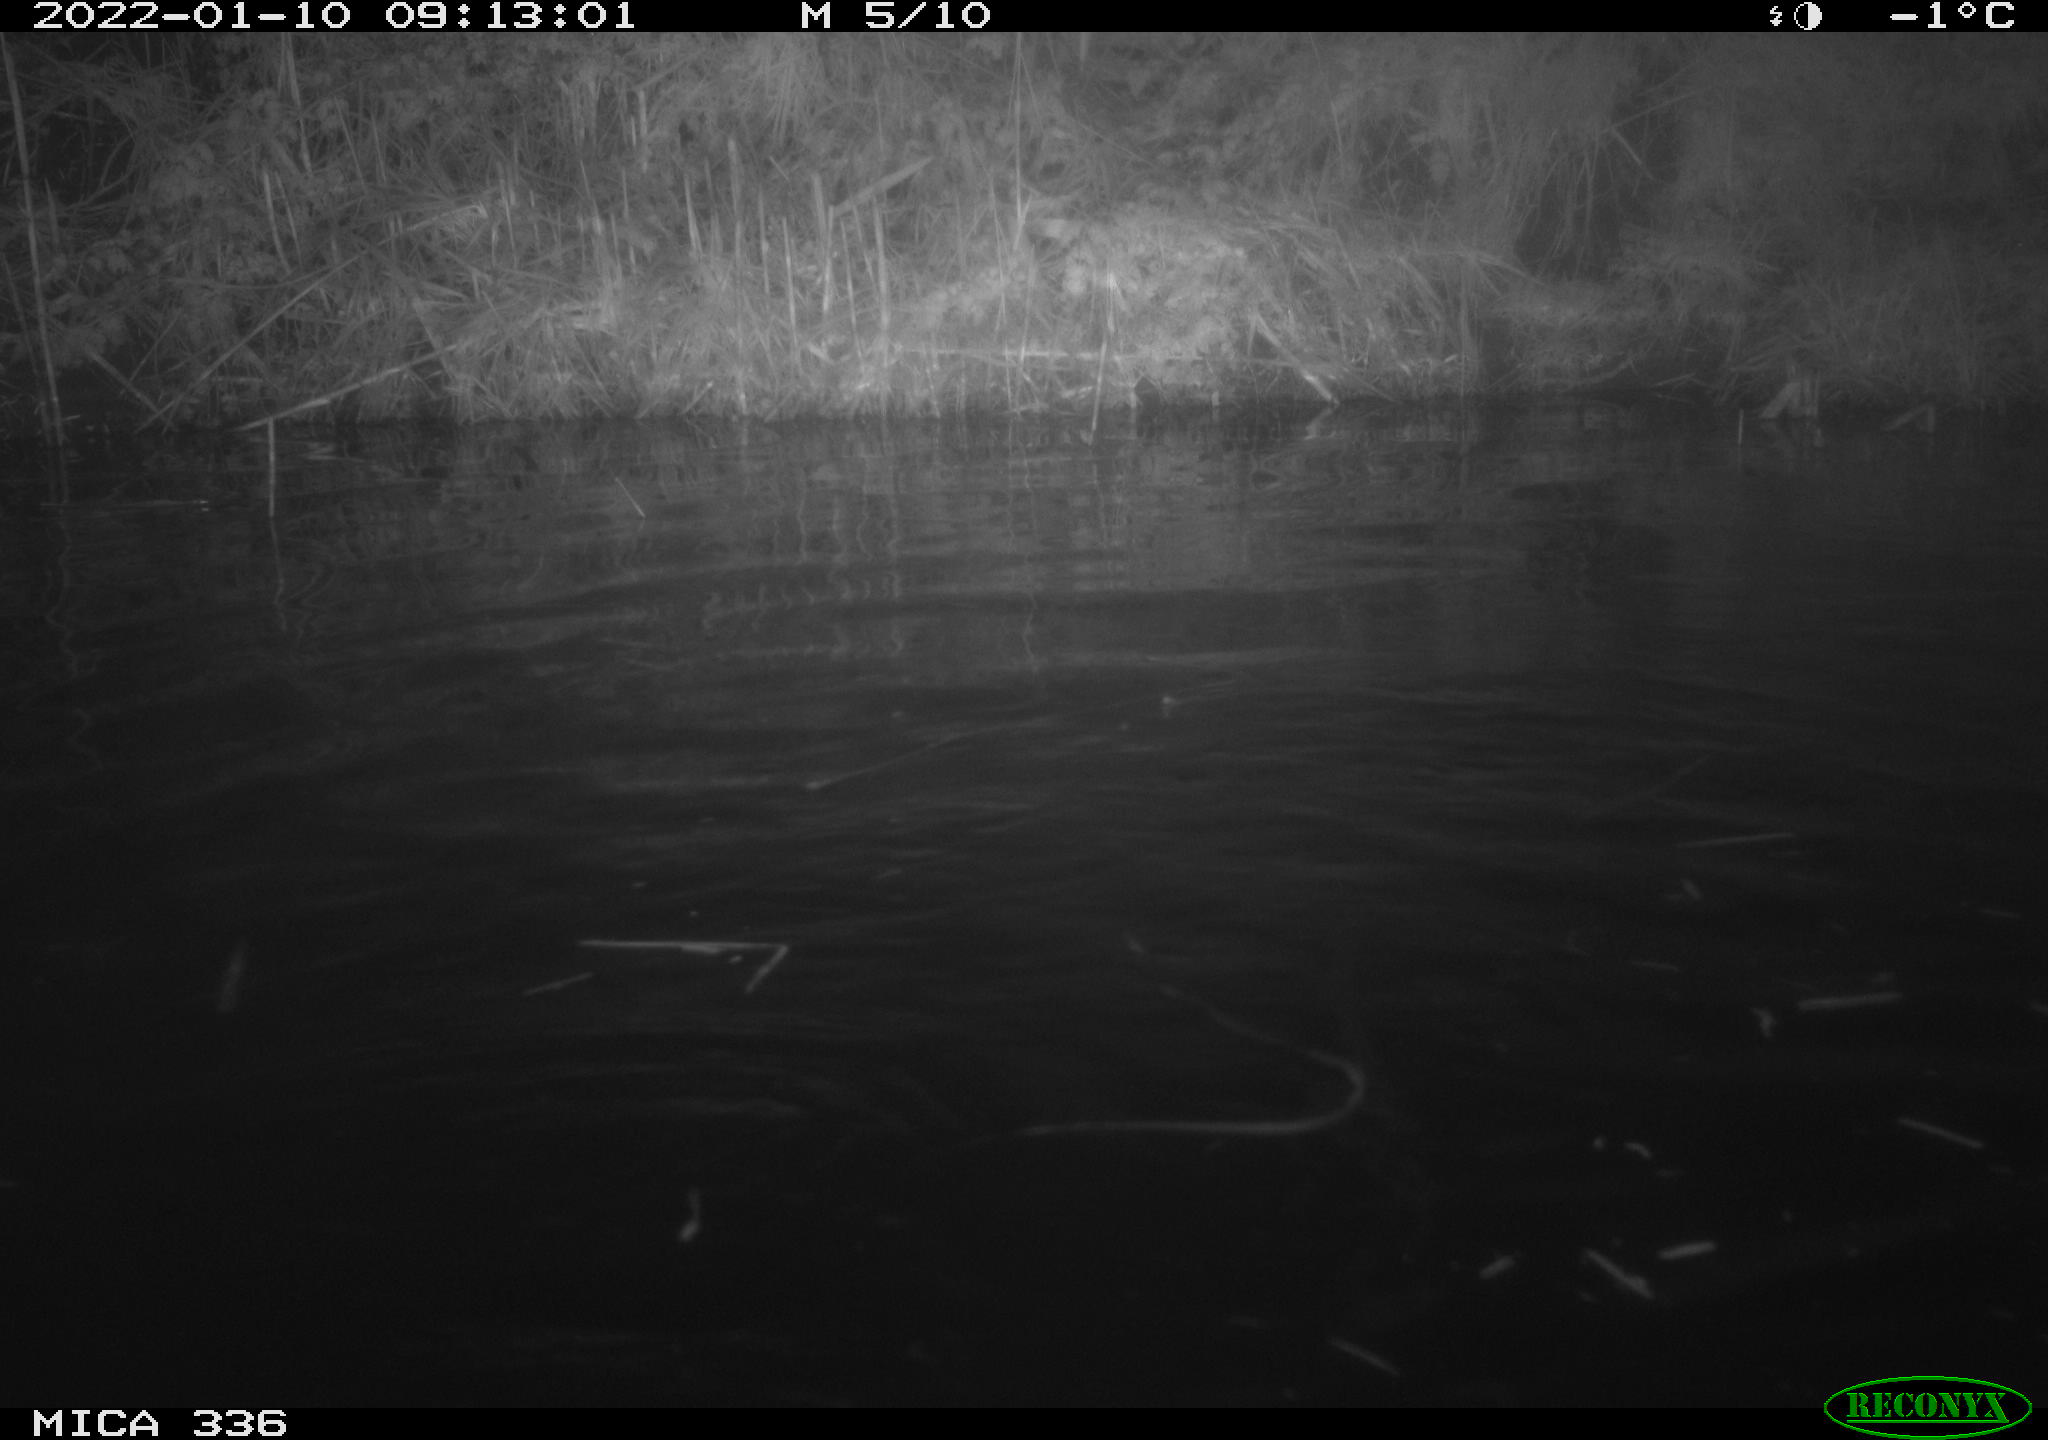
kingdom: Animalia
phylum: Chordata
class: Aves
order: Anseriformes
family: Anatidae
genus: Anas
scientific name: Anas platyrhynchos
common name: Mallard
